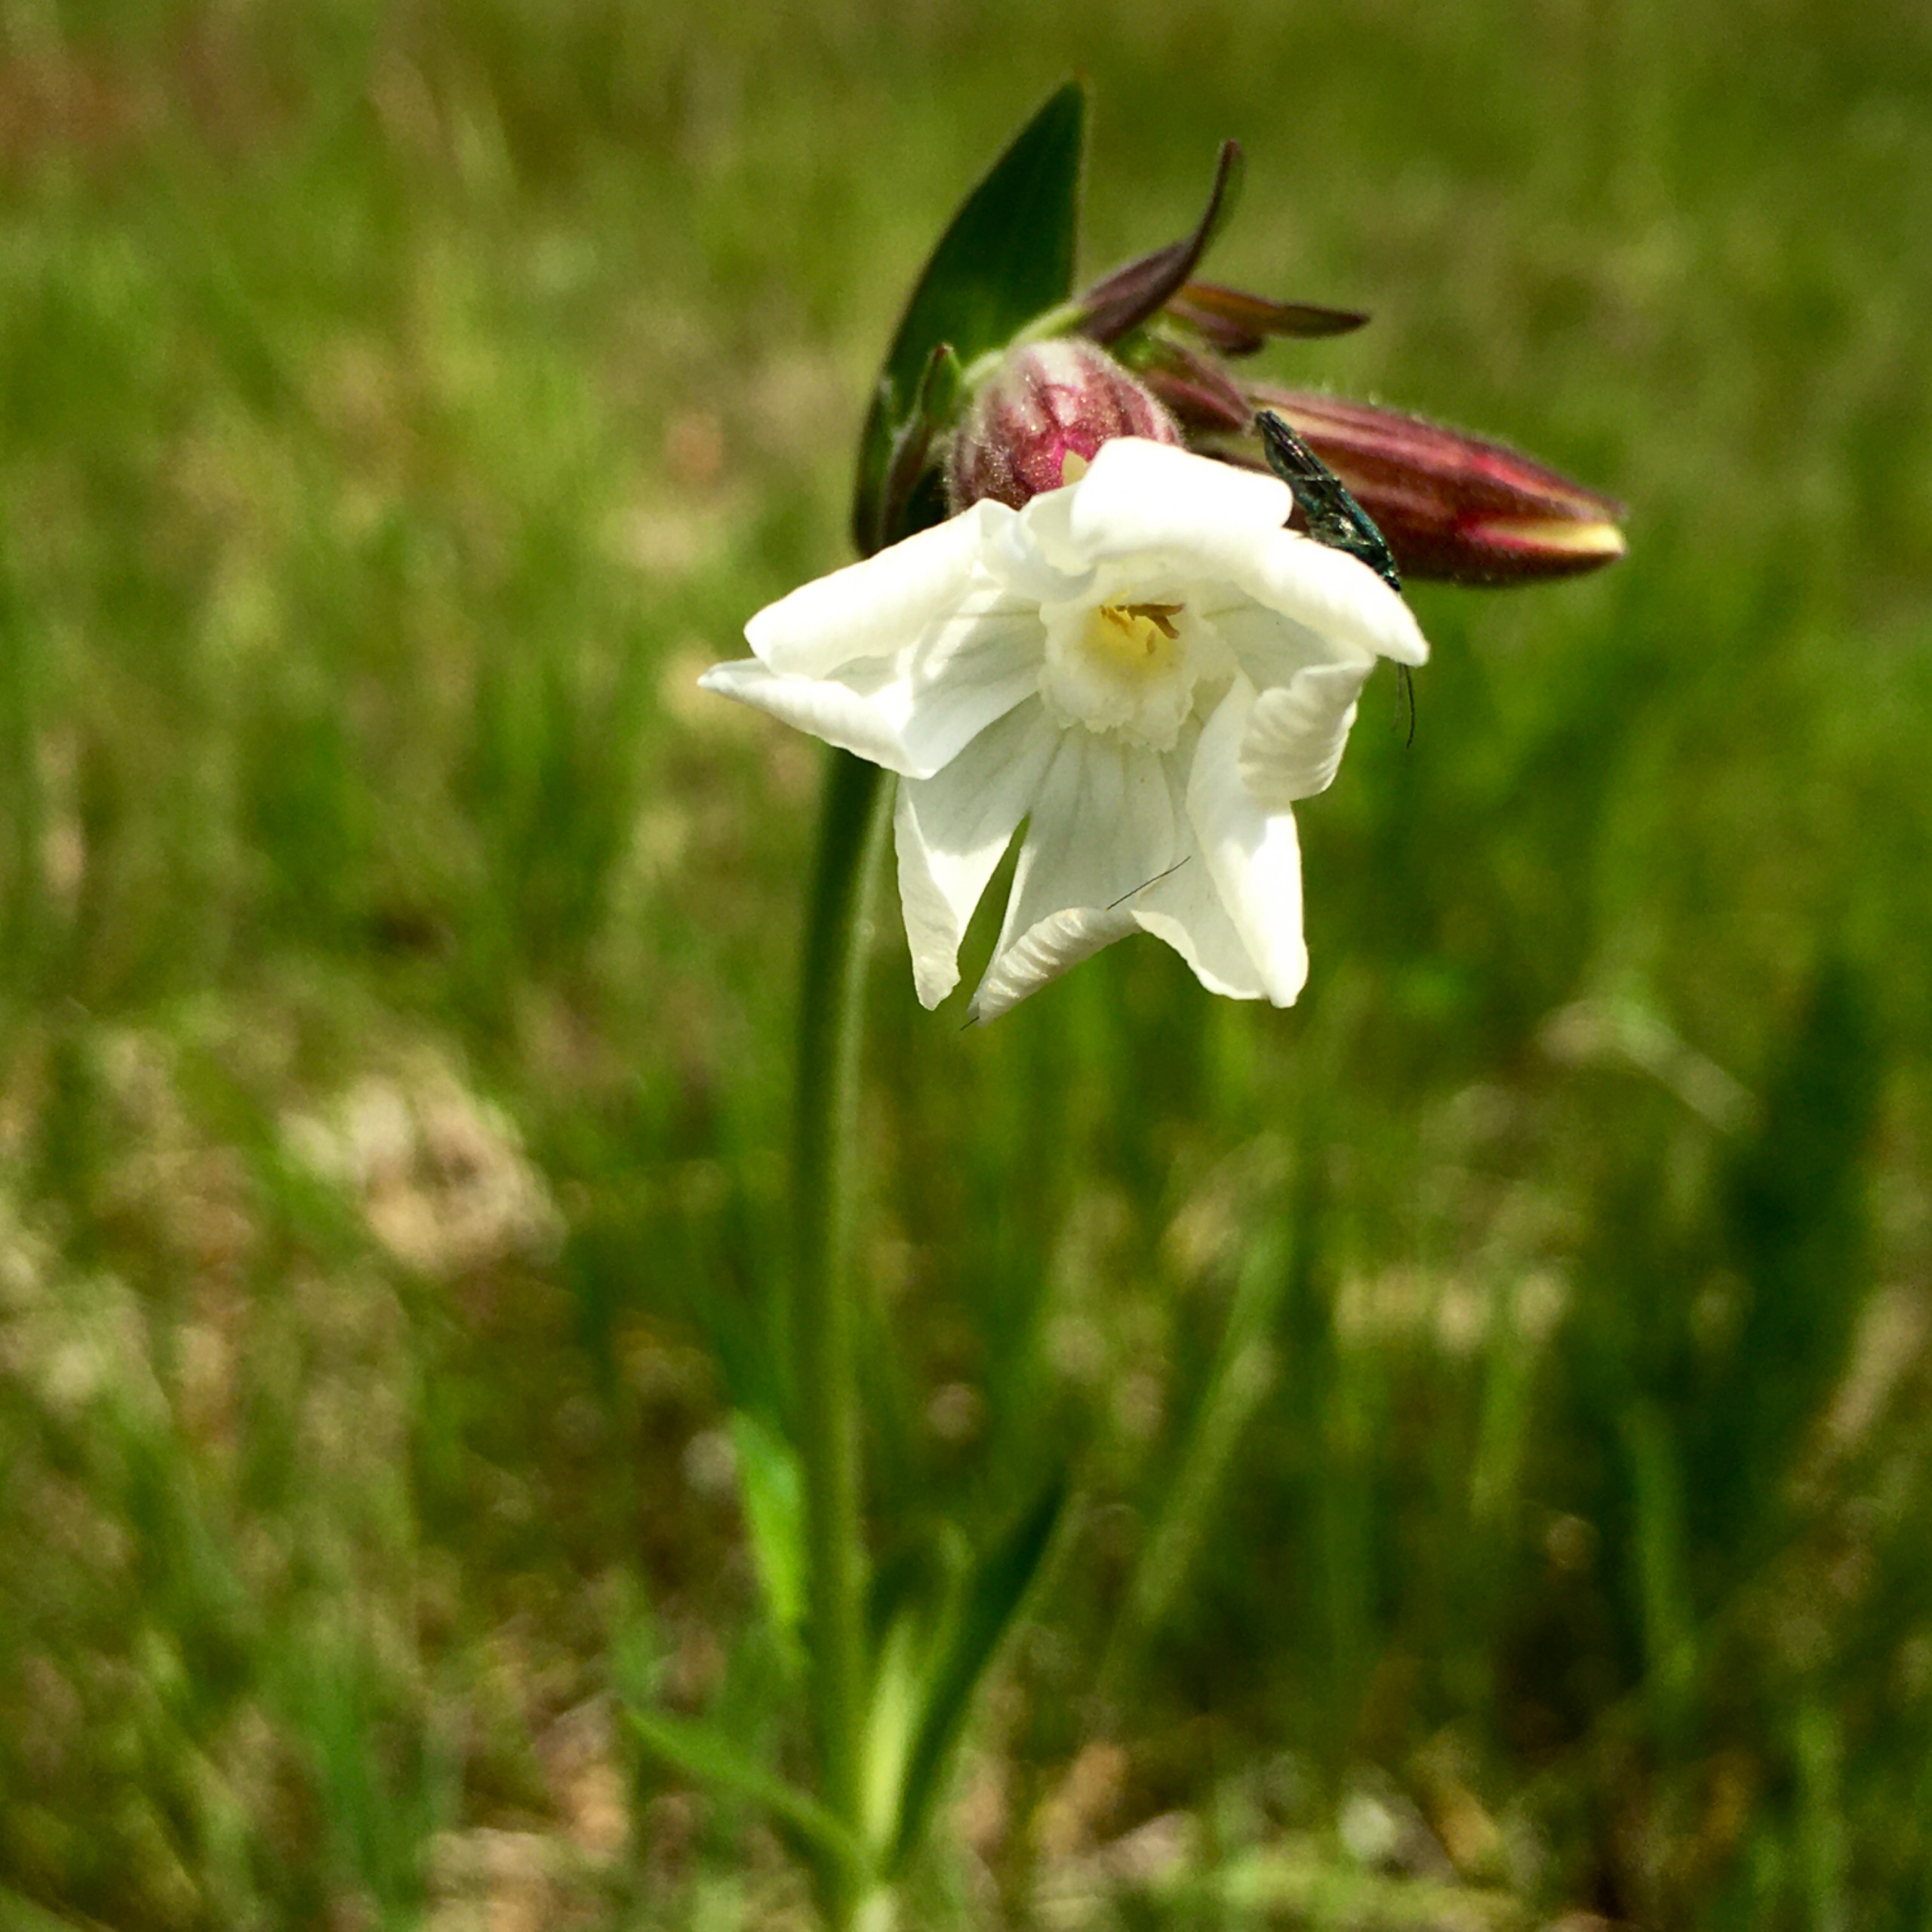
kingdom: Plantae
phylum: Tracheophyta
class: Magnoliopsida
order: Caryophyllales
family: Caryophyllaceae
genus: Silene
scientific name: Silene latifolia
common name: Aftenpragtstjerne
